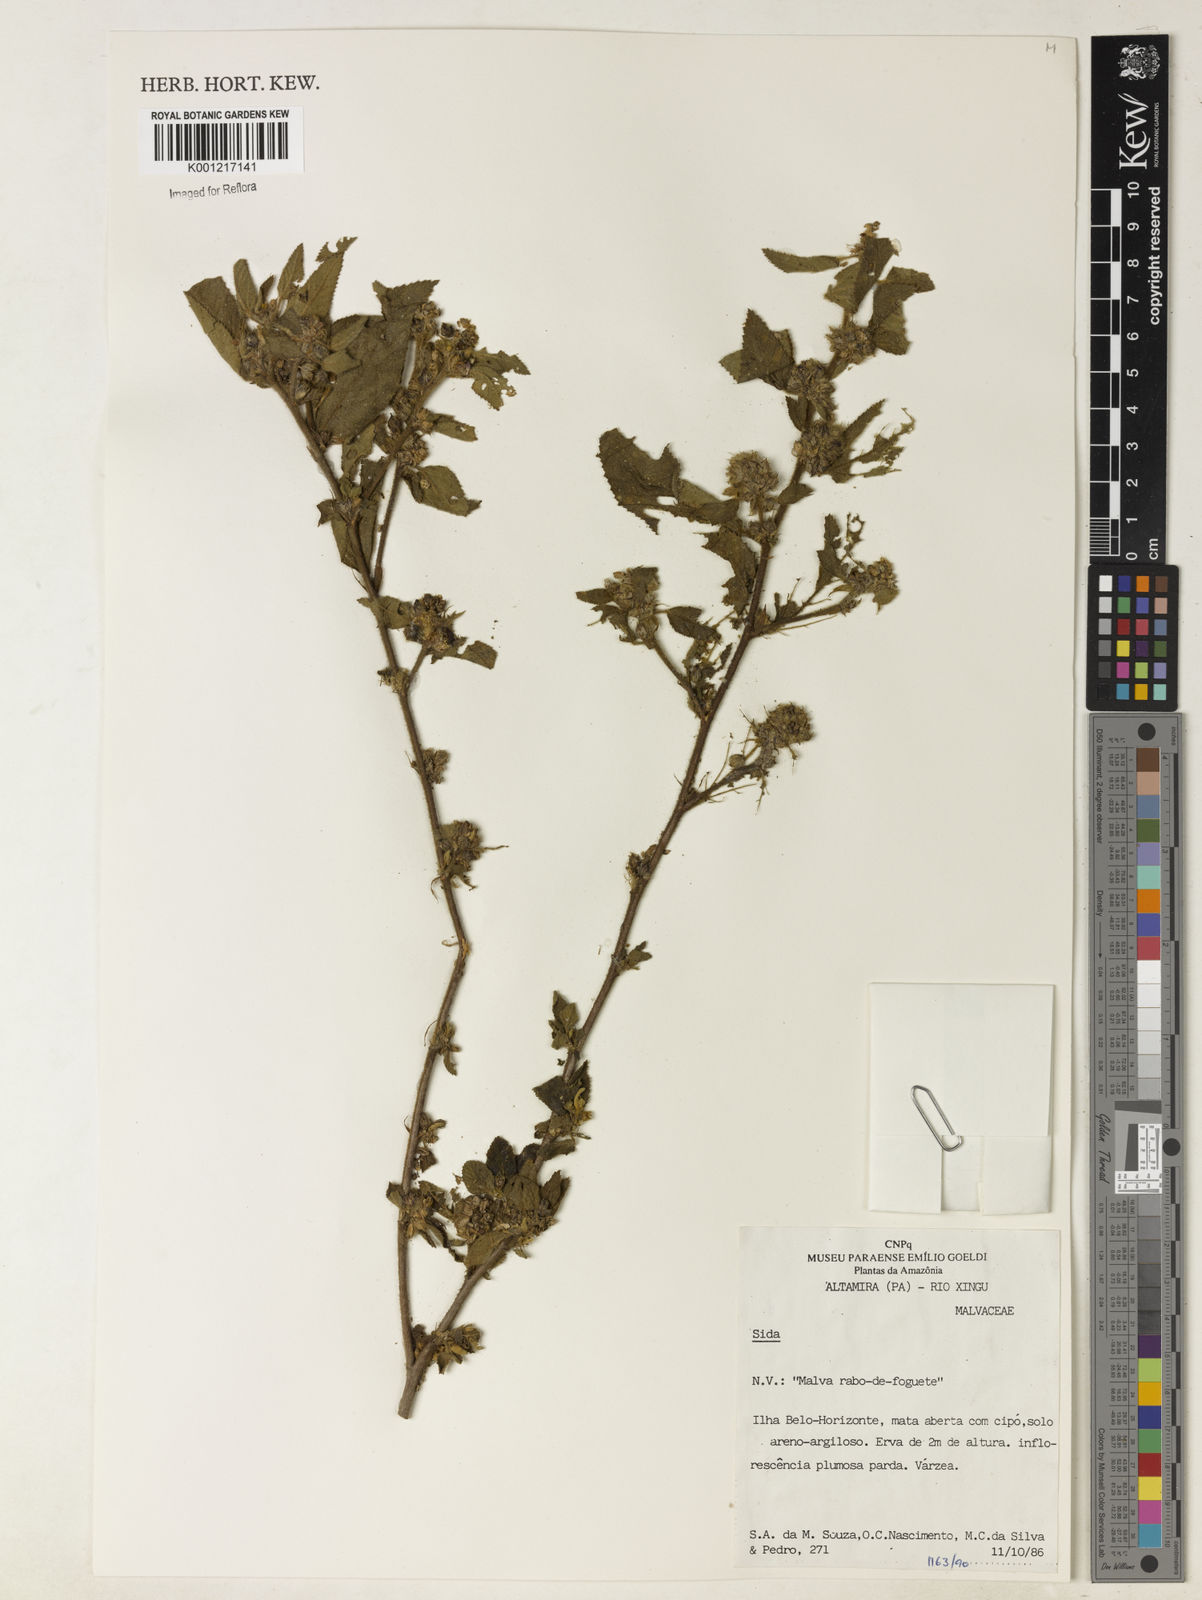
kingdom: Plantae
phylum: Tracheophyta
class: Magnoliopsida
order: Malvales
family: Malvaceae
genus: Sida
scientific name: Sida
